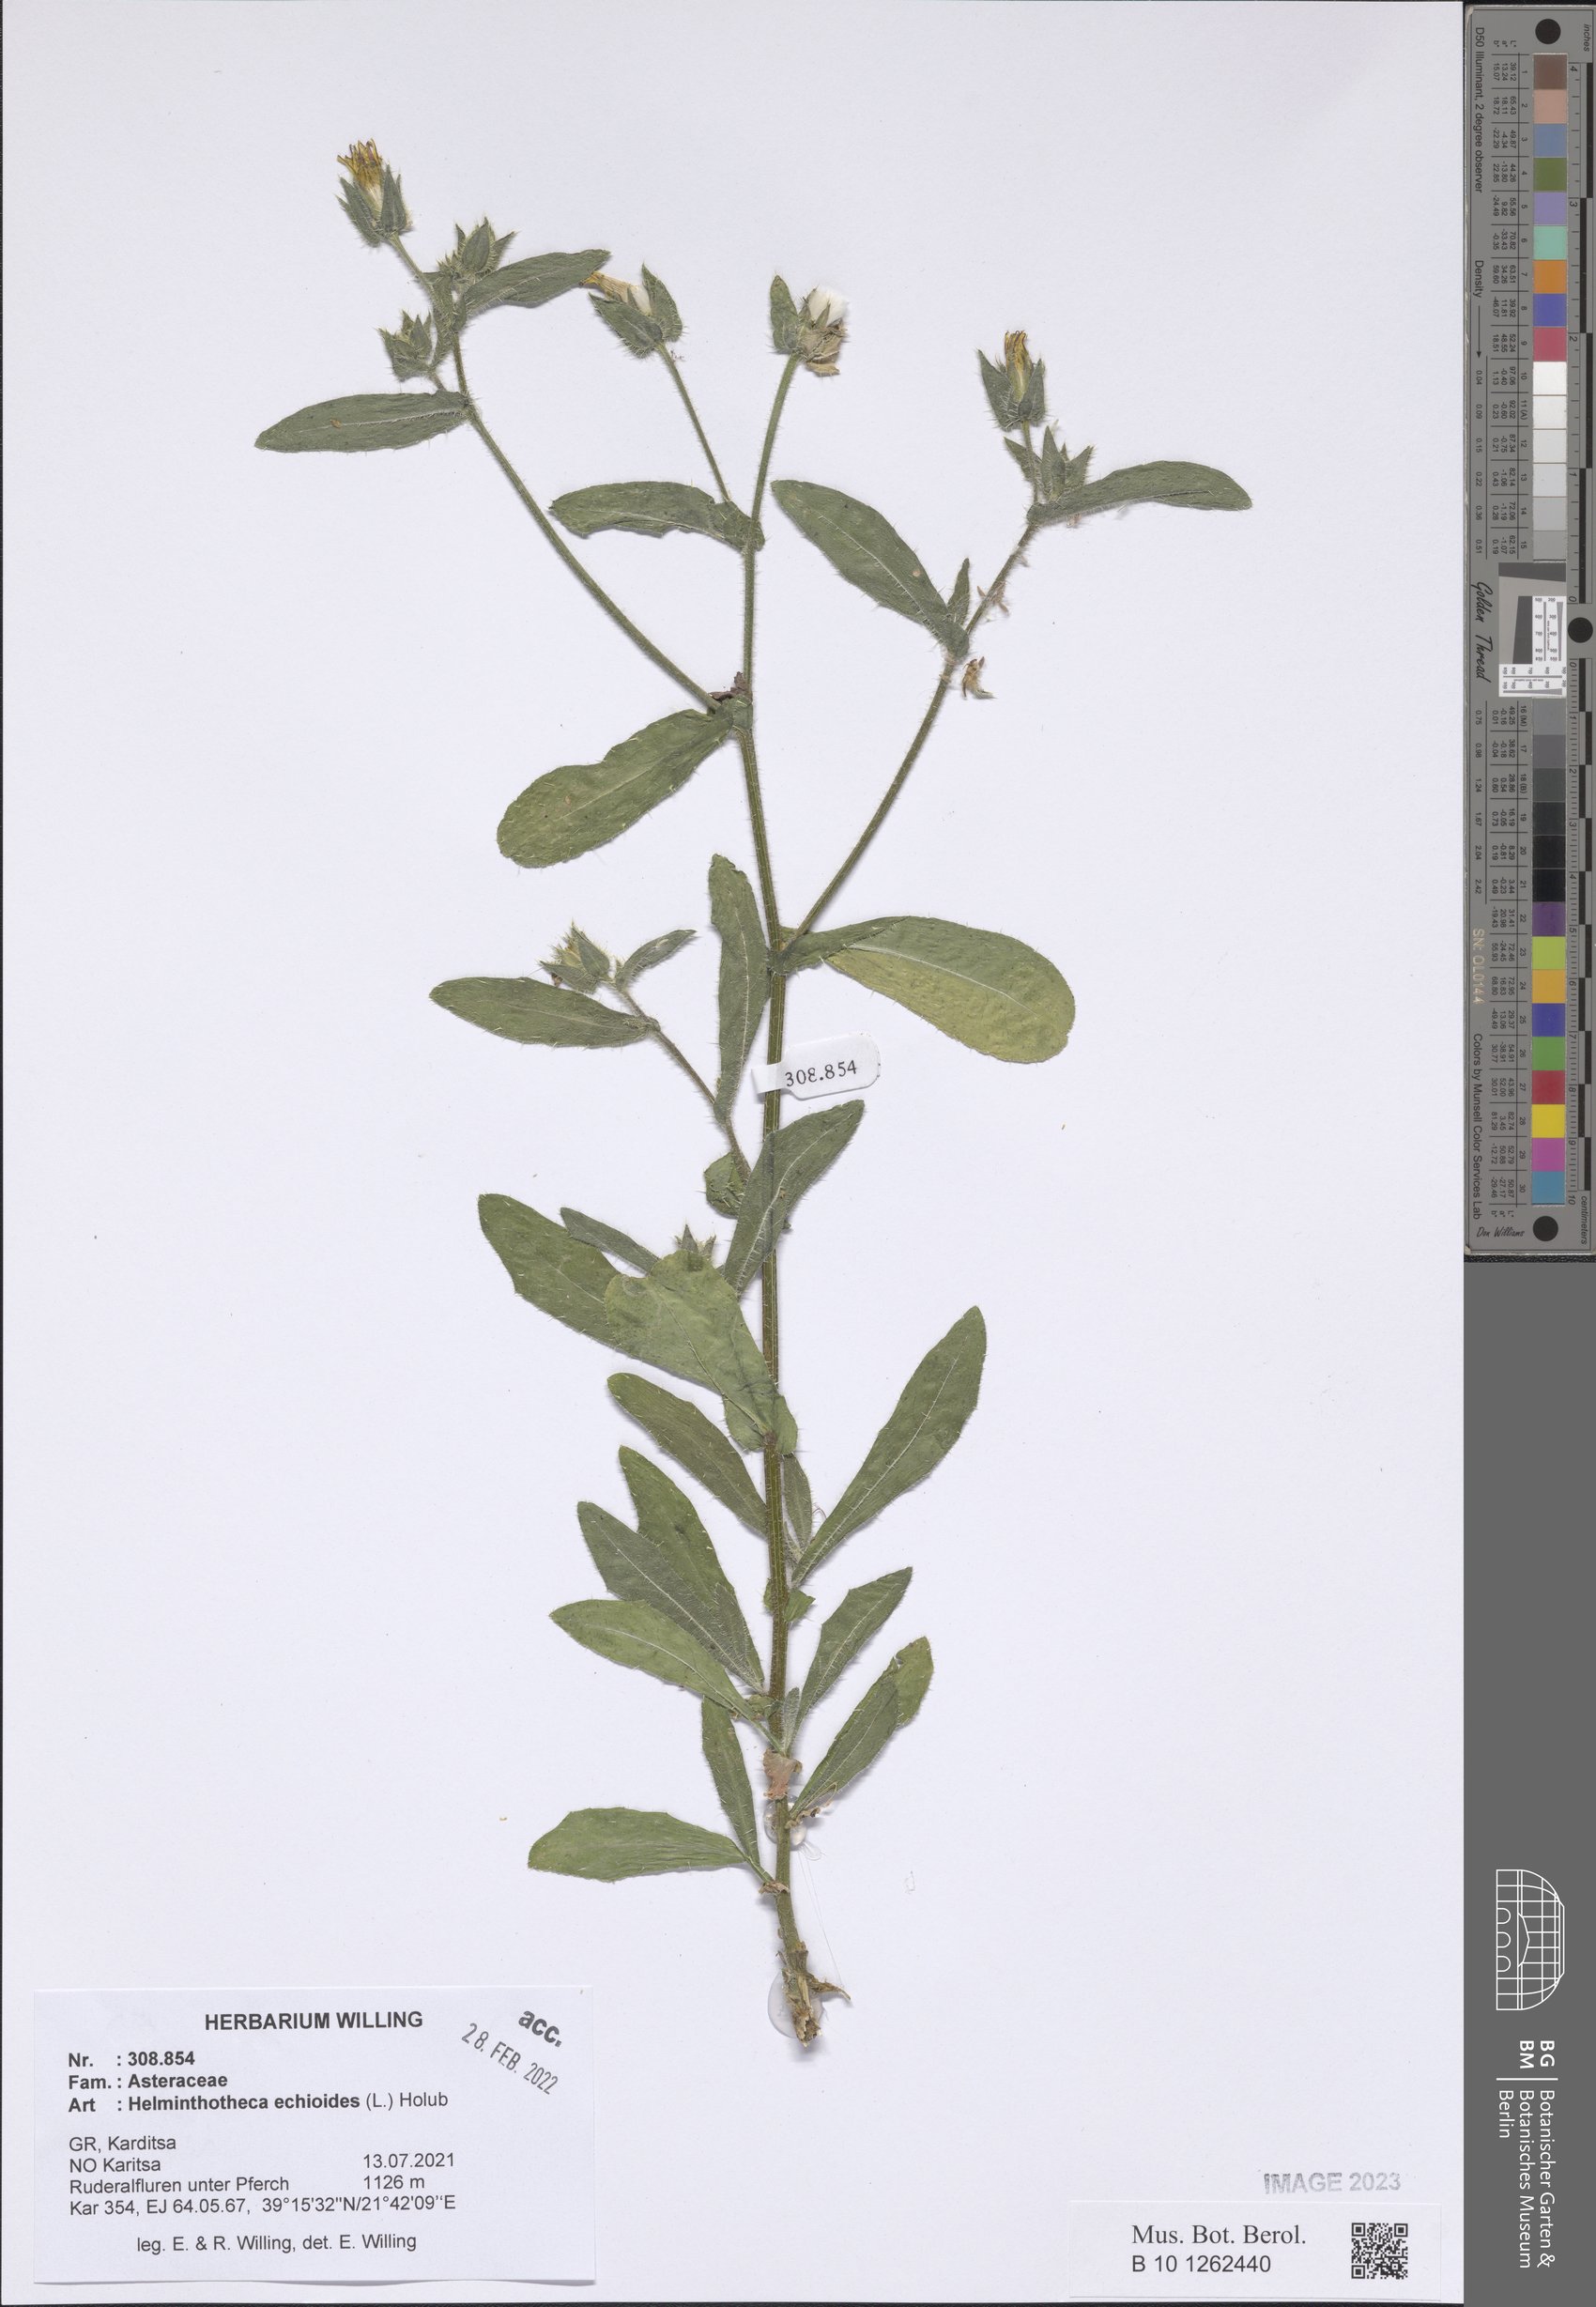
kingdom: Plantae
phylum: Tracheophyta
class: Magnoliopsida
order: Asterales
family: Asteraceae
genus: Helminthotheca
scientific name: Helminthotheca echioides
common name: Ox-tongue
